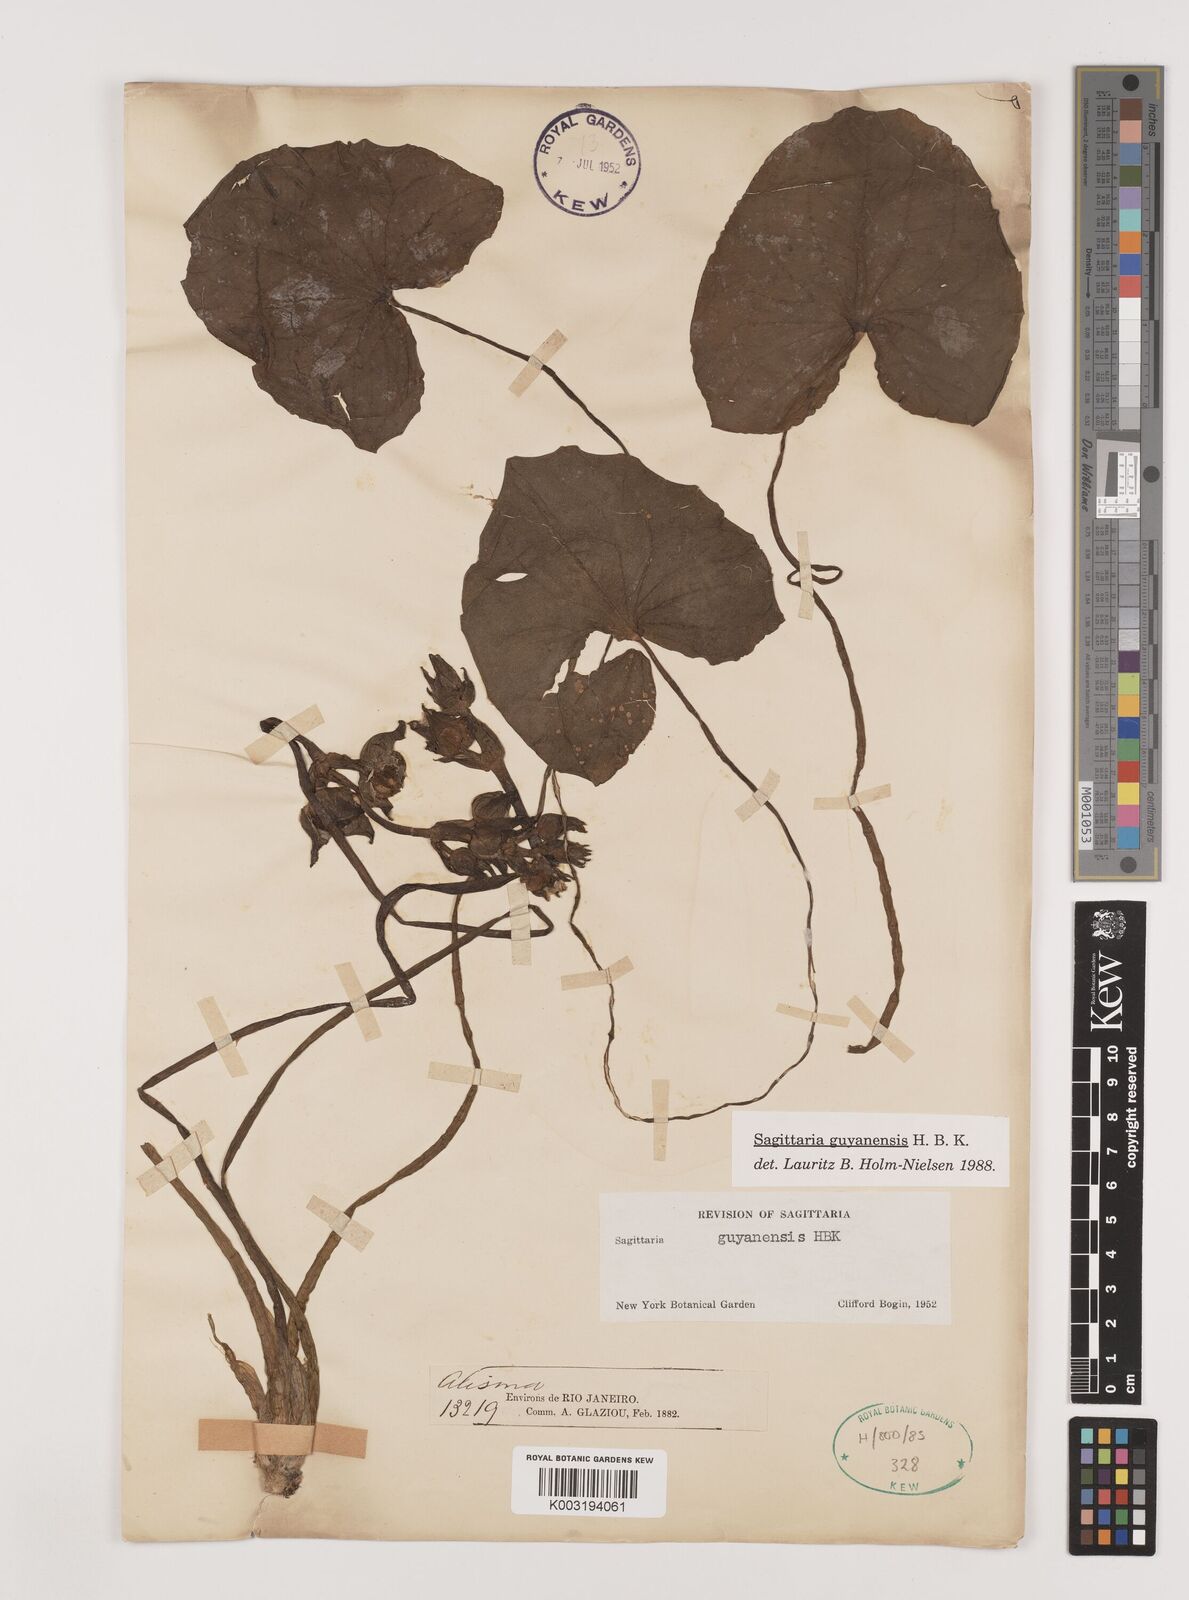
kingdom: Plantae
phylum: Tracheophyta
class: Liliopsida
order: Alismatales
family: Alismataceae
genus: Sagittaria
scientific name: Sagittaria guayanensis
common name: Guyanese arrowhead
